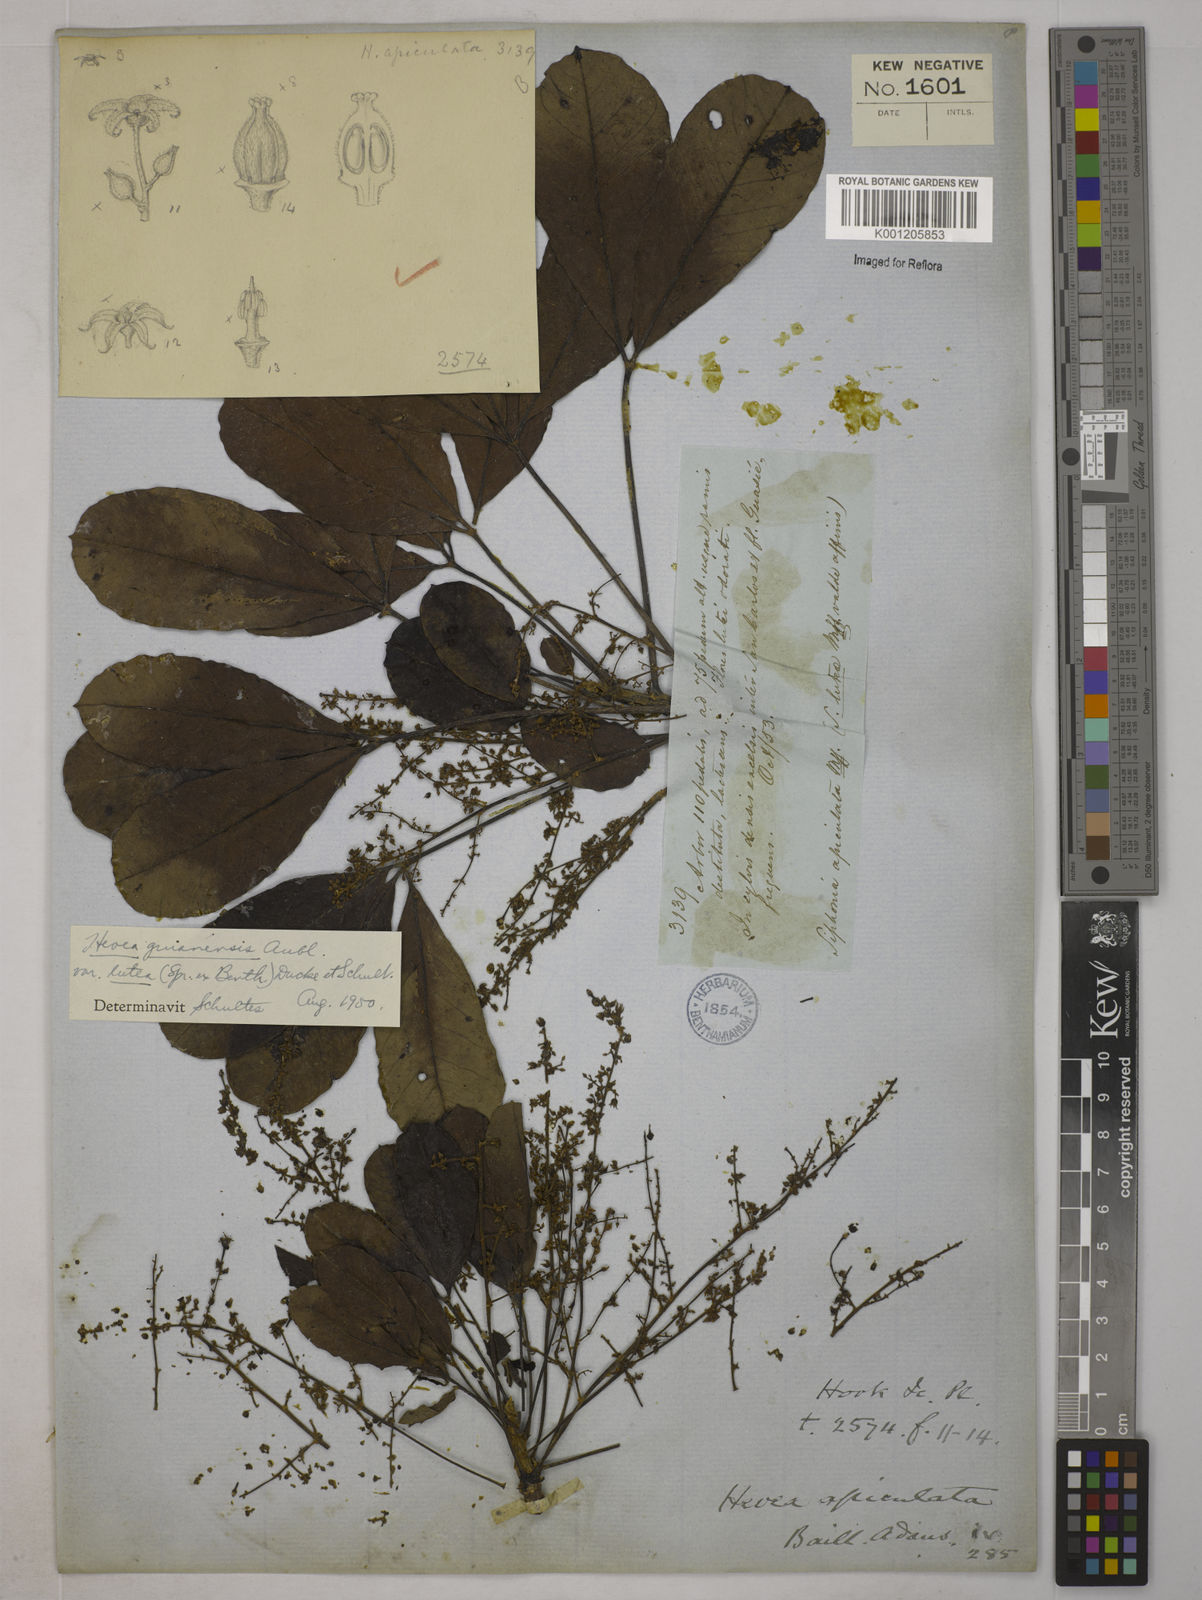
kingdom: Plantae
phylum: Tracheophyta
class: Magnoliopsida
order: Malpighiales
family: Euphorbiaceae
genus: Hevea
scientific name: Hevea guianensis
